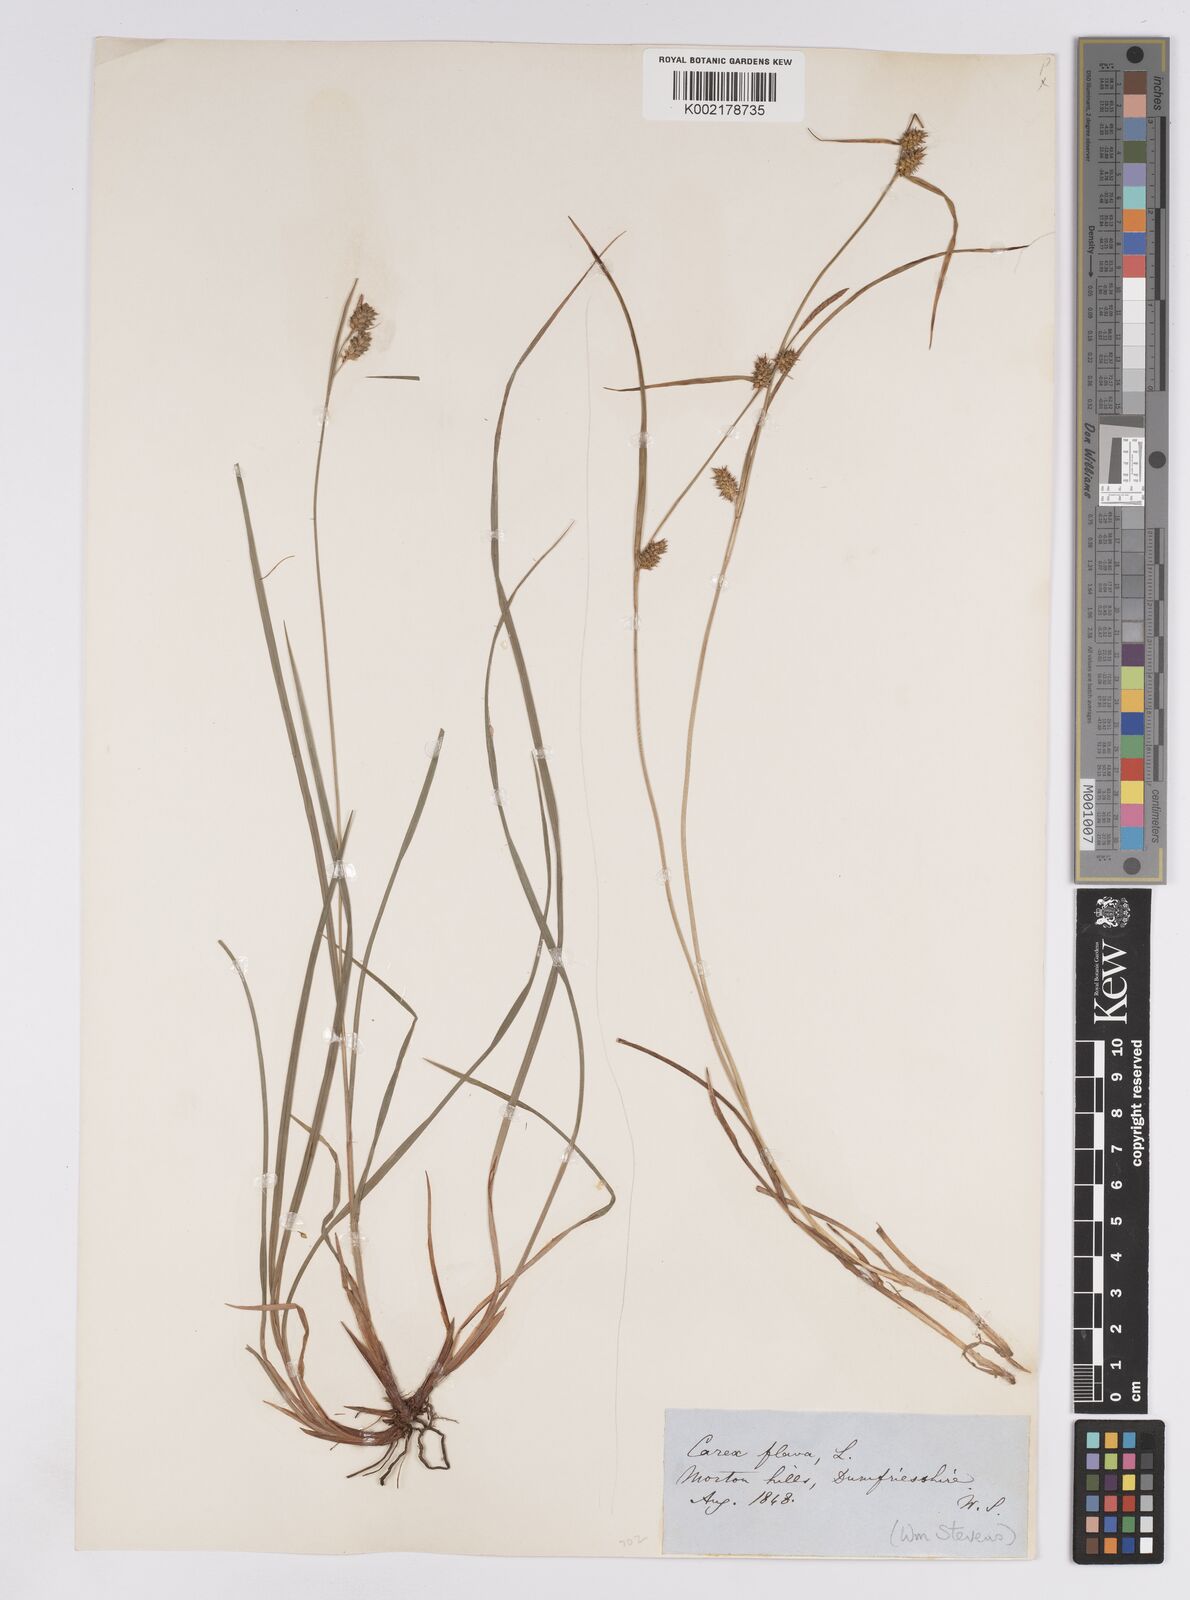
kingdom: Plantae
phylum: Tracheophyta
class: Liliopsida
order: Poales
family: Cyperaceae
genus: Carex
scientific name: Carex lepidocarpa
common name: Long-stalked yellow-sedge
